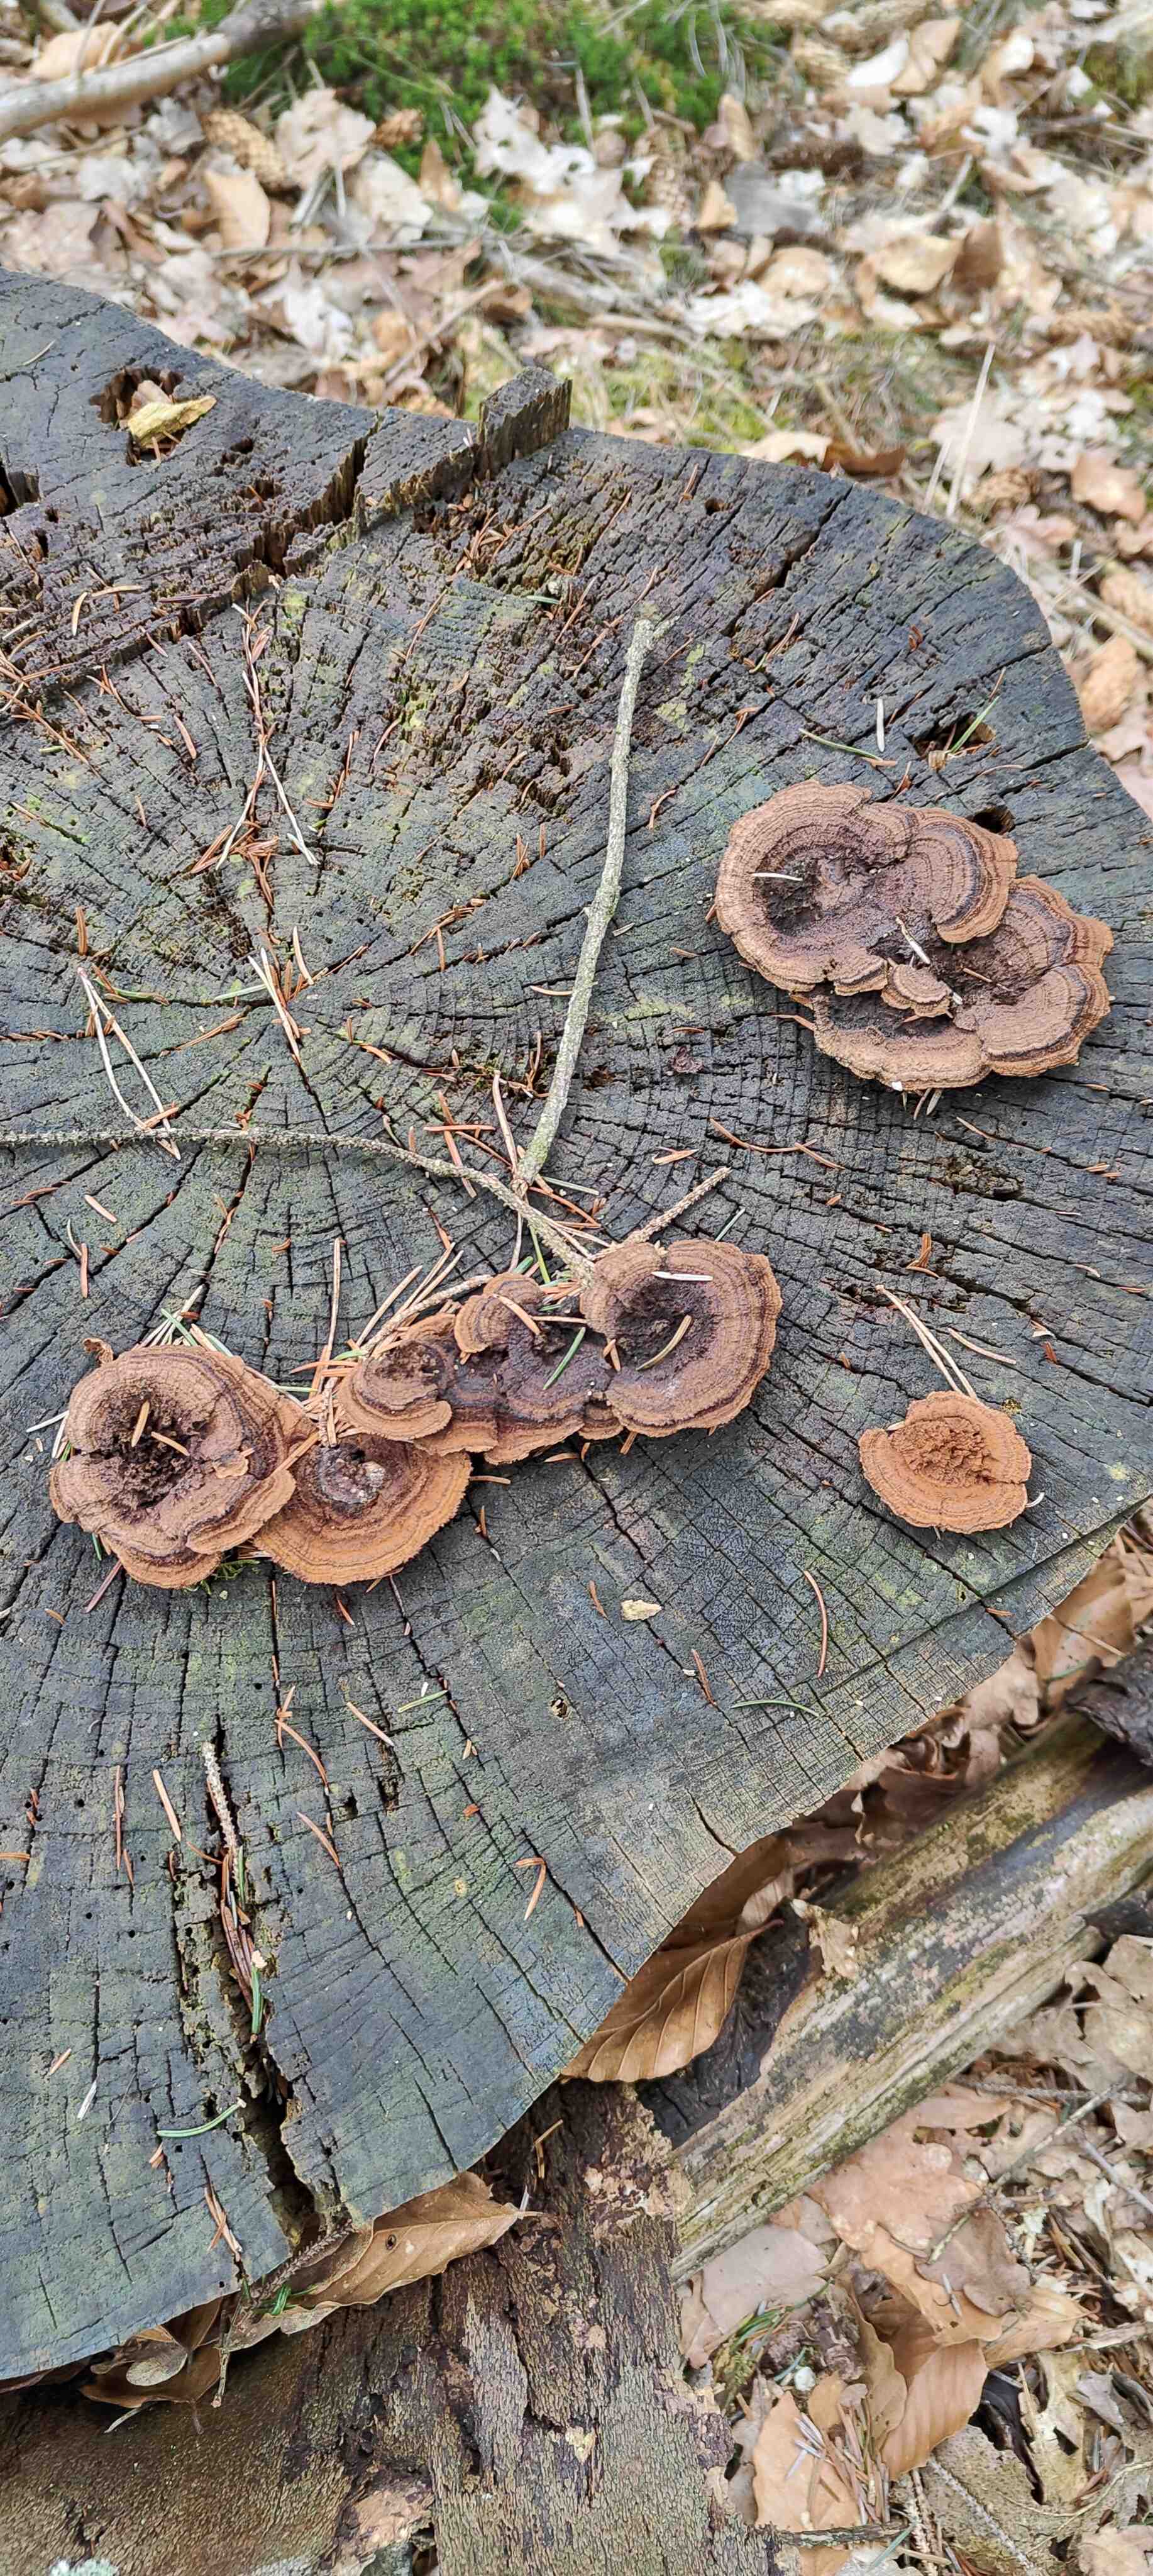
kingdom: Fungi
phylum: Basidiomycota
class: Agaricomycetes
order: Gloeophyllales
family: Gloeophyllaceae
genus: Gloeophyllum
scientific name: Gloeophyllum sepiarium
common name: fyrre-korkhat
